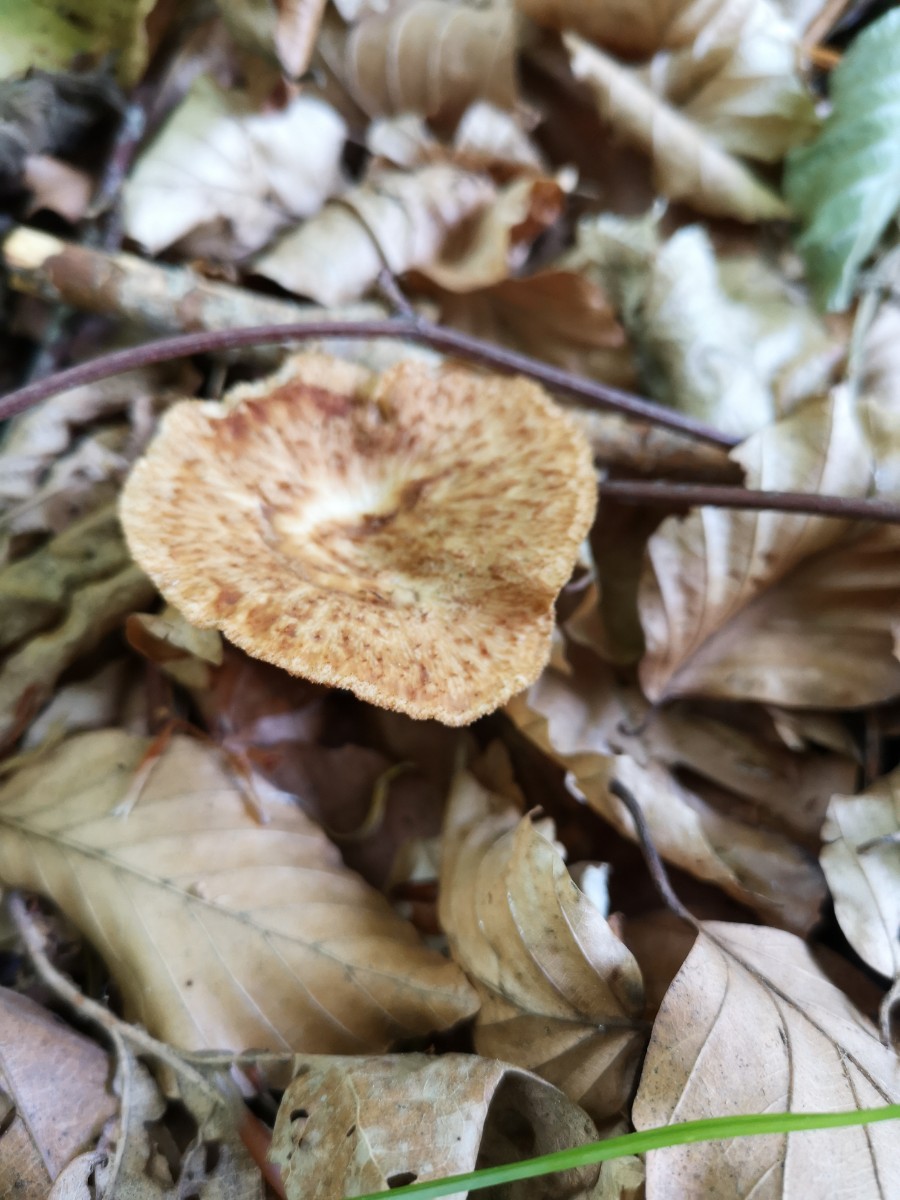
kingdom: Fungi
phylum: Basidiomycota
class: Agaricomycetes
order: Polyporales
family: Polyporaceae
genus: Polyporus
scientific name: Polyporus tuberaster
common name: knoldet stilkporesvamp
